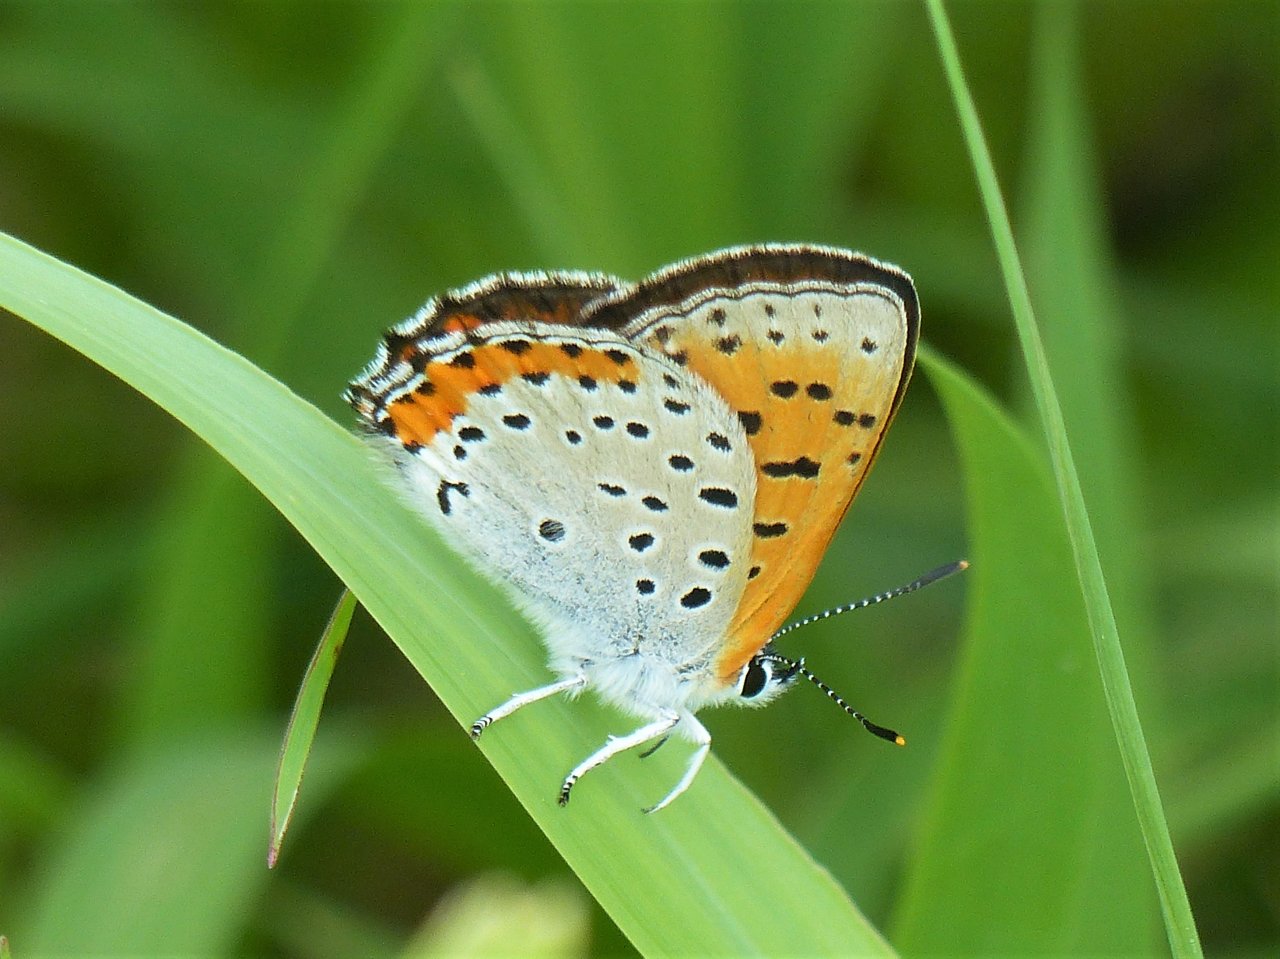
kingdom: Animalia
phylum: Arthropoda
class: Insecta
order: Lepidoptera
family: Sesiidae
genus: Sesia
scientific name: Sesia Lycaena hyllus
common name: Bronze Copper
